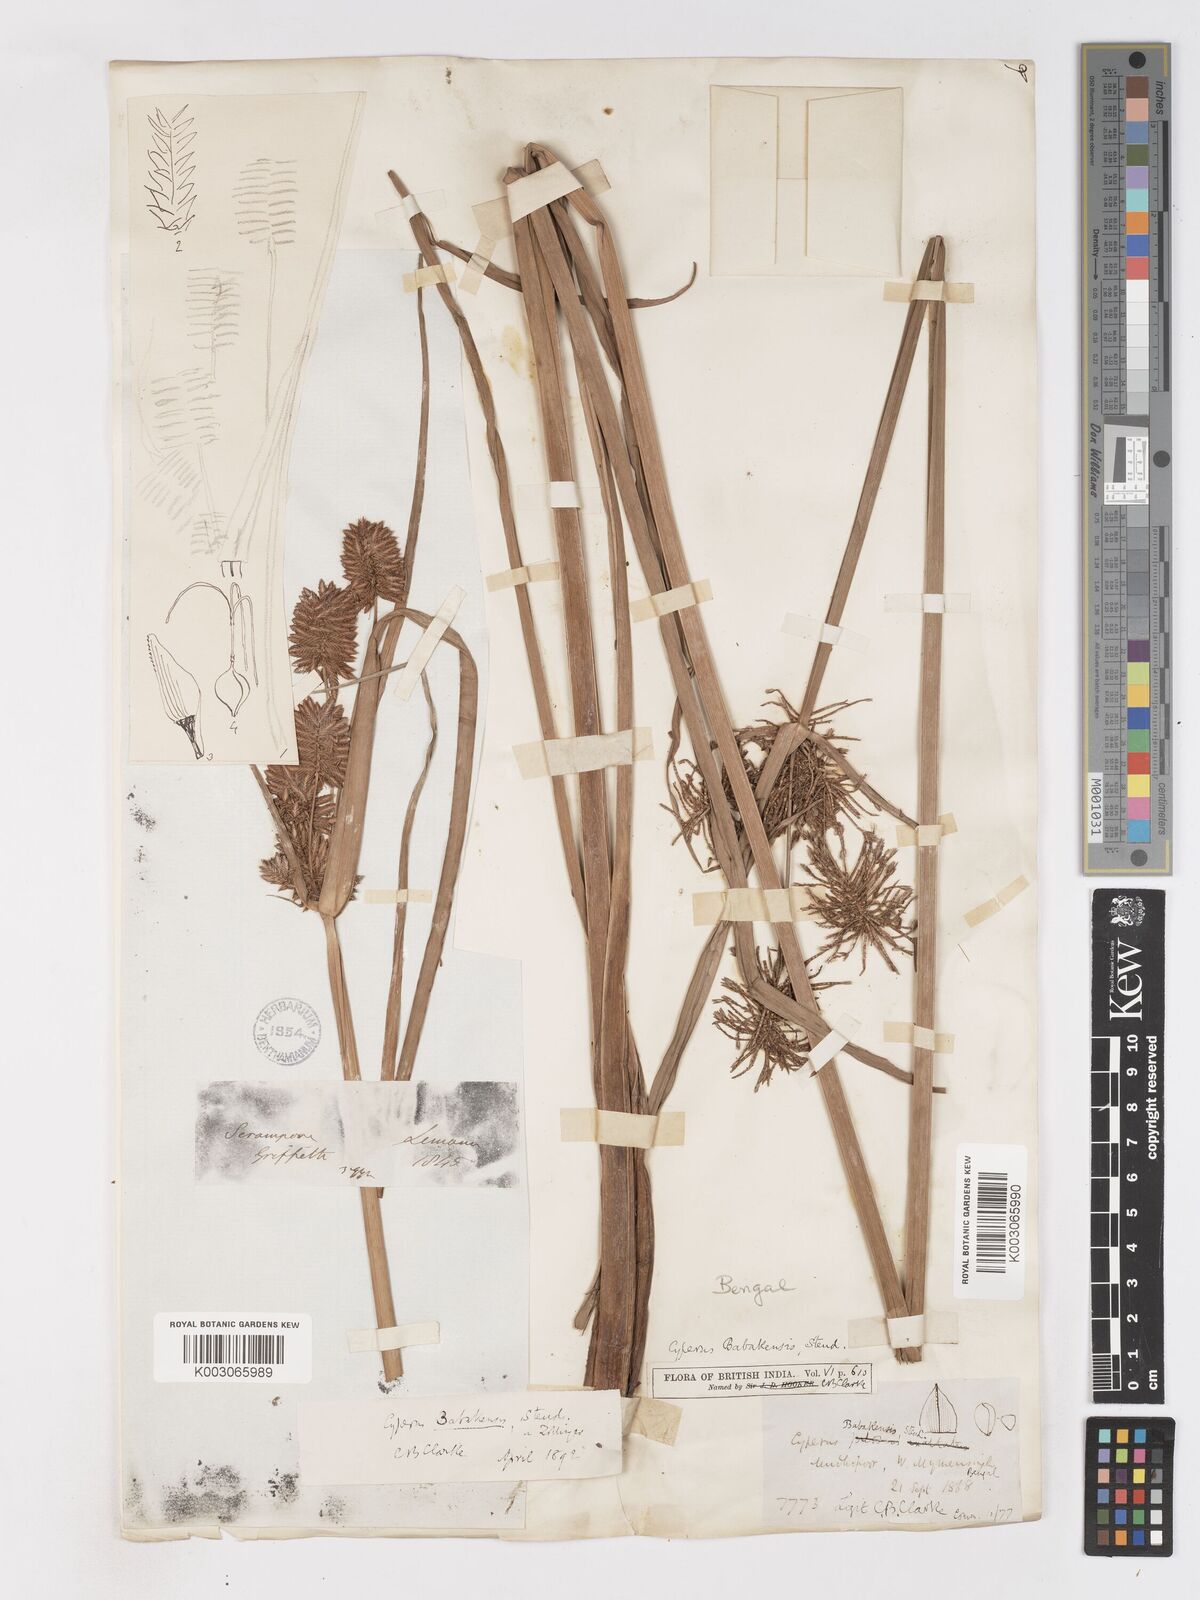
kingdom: Plantae
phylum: Tracheophyta
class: Liliopsida
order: Poales
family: Cyperaceae
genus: Cyperus
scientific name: Cyperus babakan
